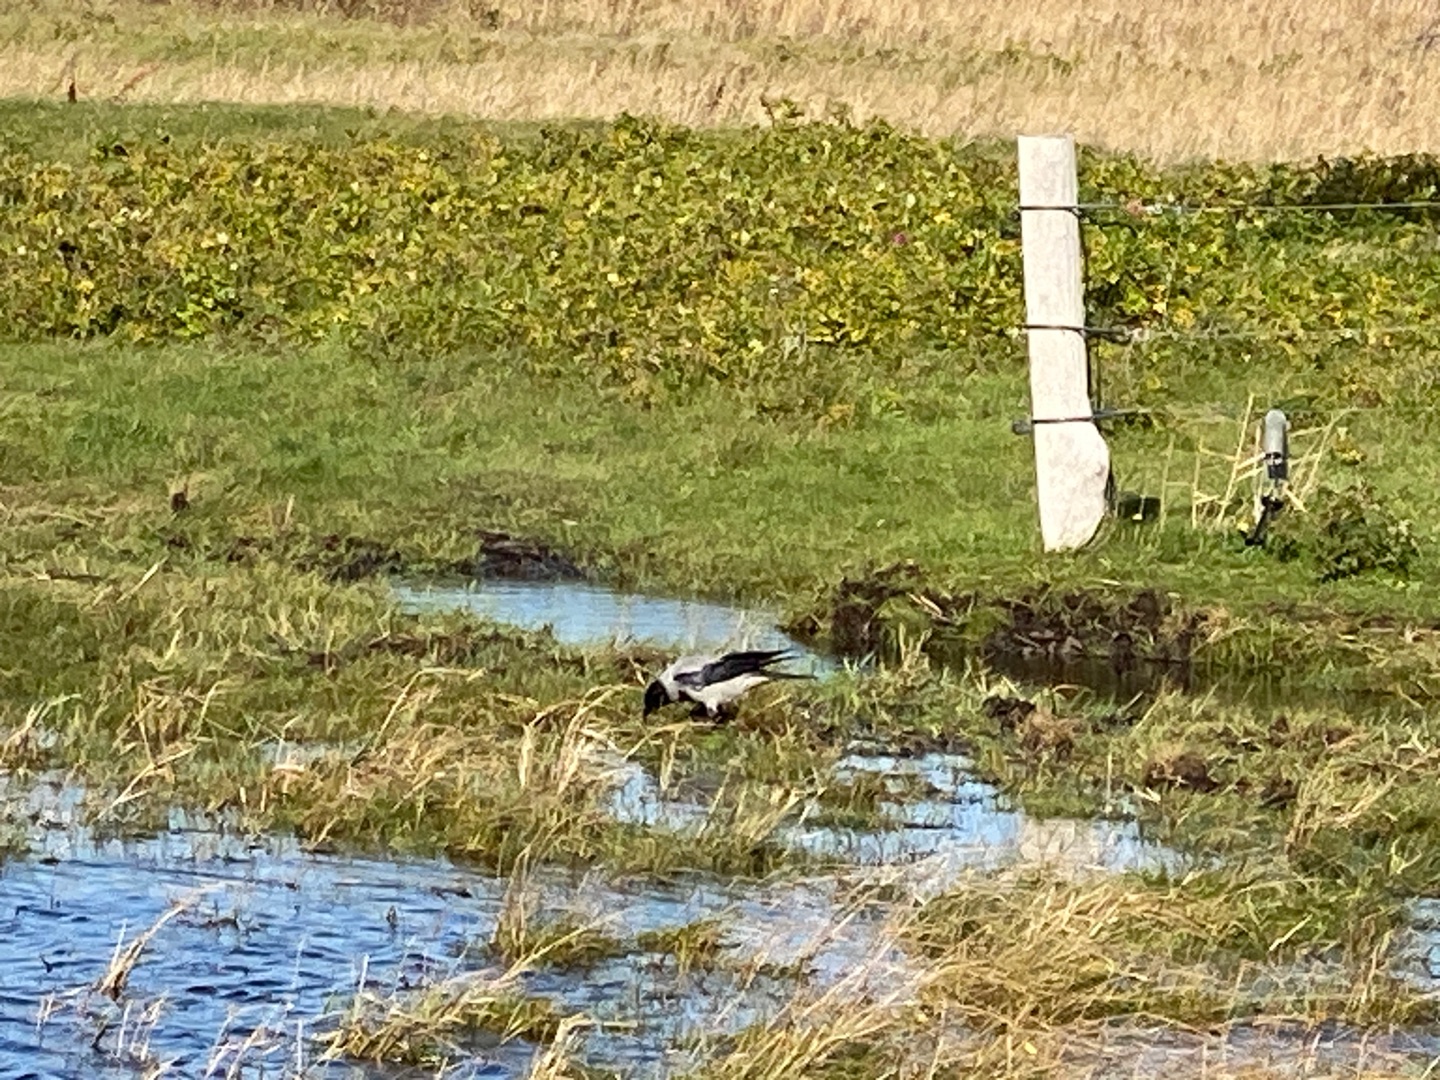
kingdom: Animalia
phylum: Chordata
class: Aves
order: Passeriformes
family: Corvidae
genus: Corvus
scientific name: Corvus cornix
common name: Gråkrage
